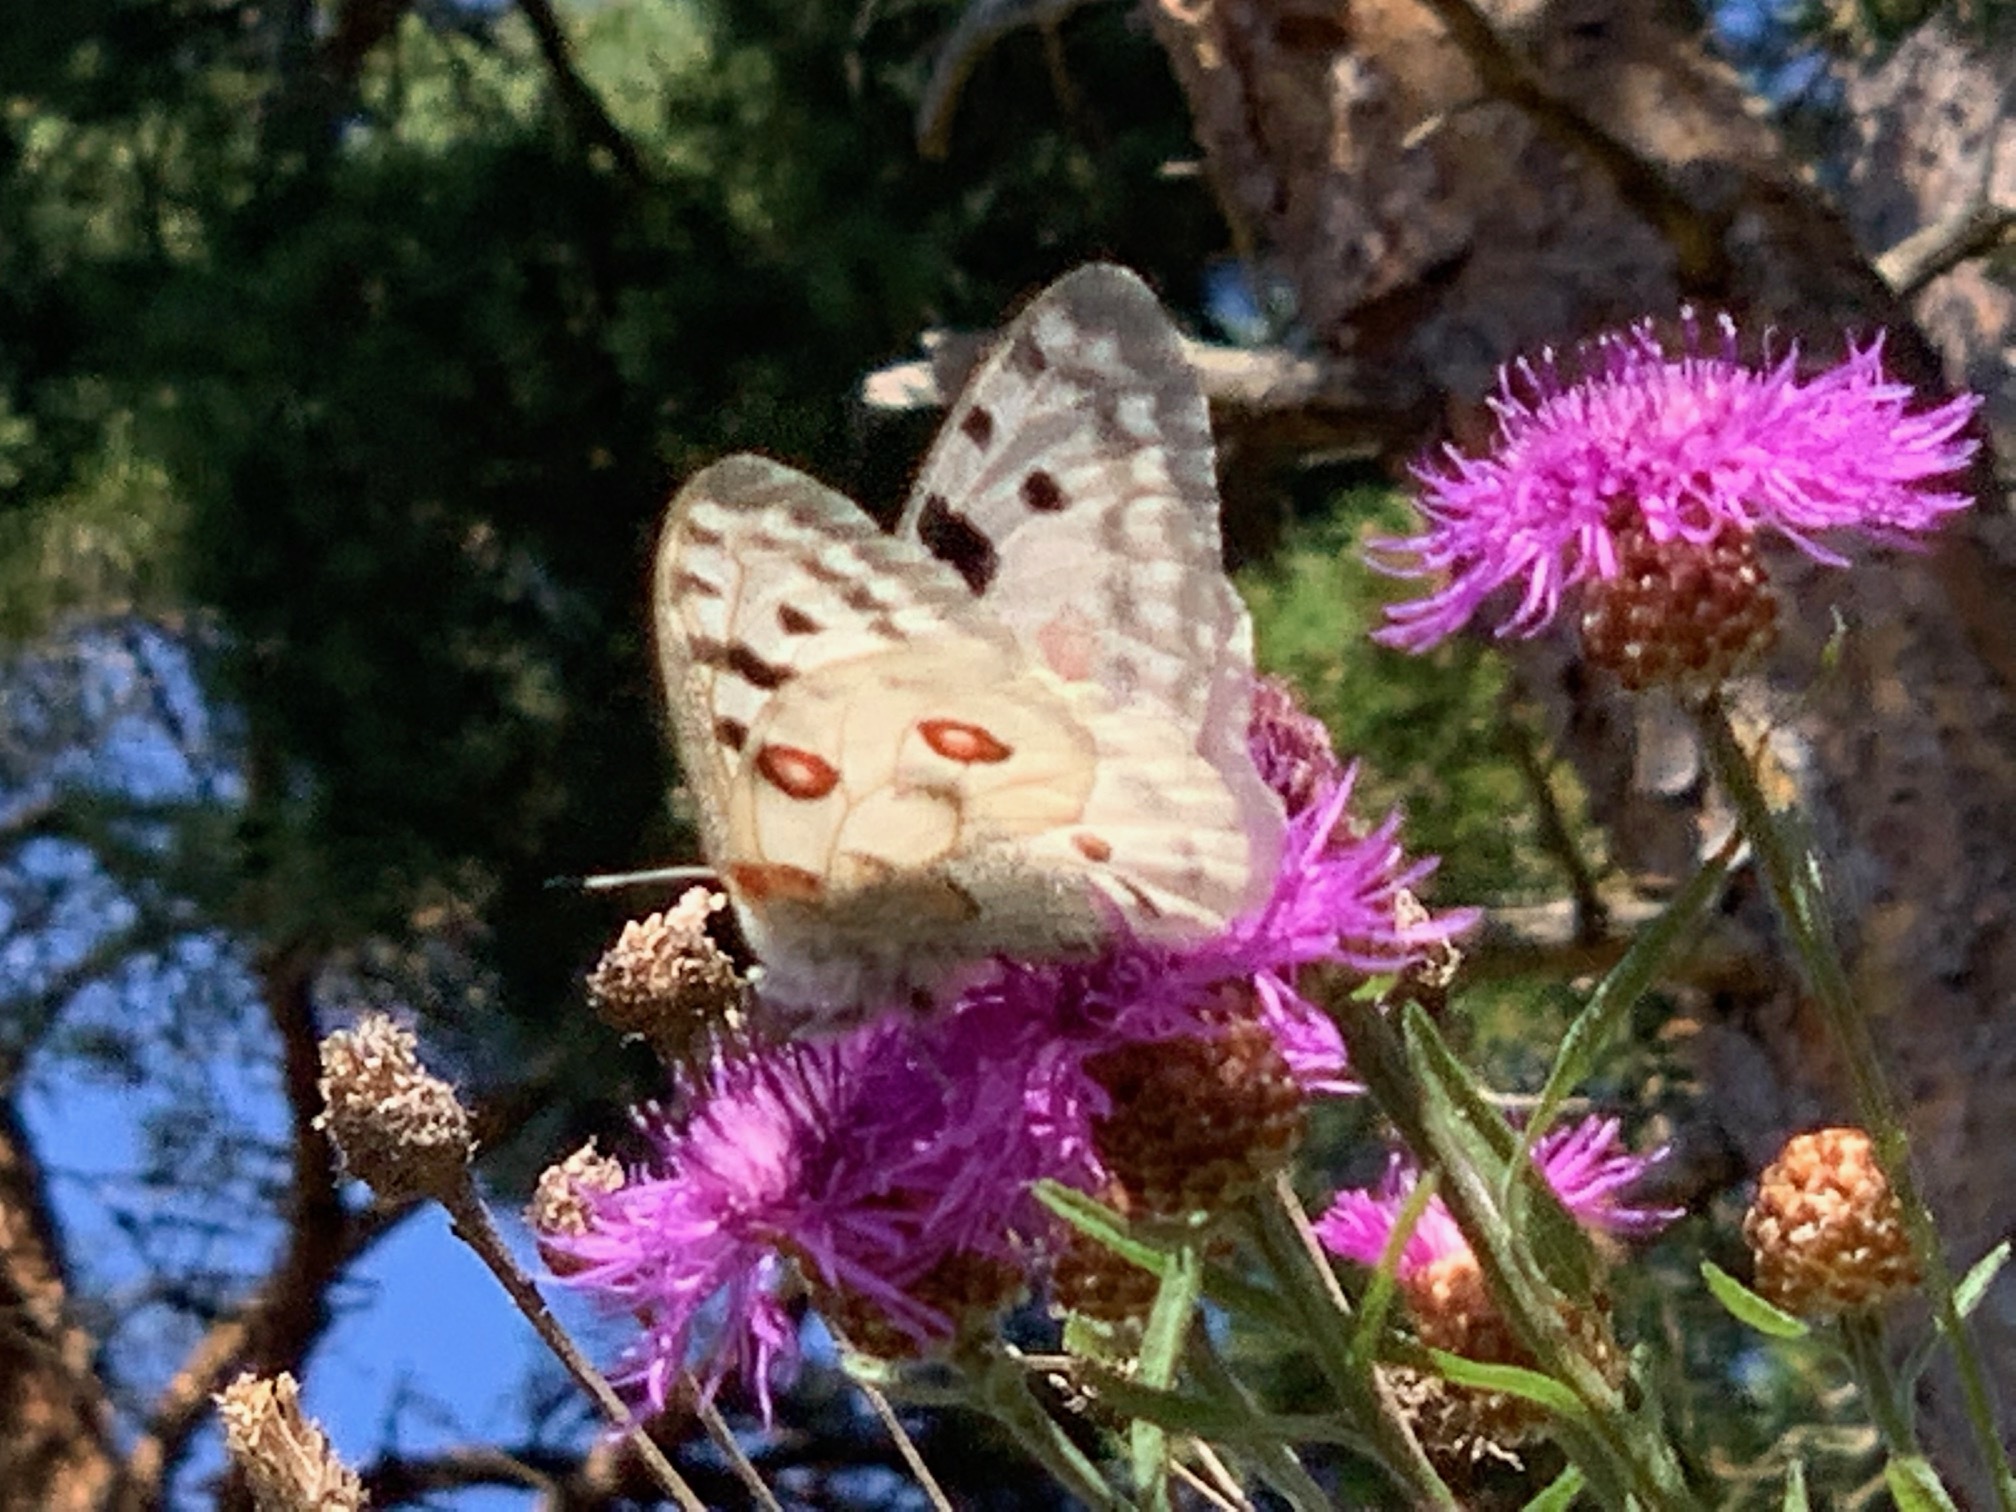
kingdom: Animalia
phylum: Arthropoda
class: Insecta
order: Lepidoptera
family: Papilionidae
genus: Parnassius
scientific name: Parnassius apollo
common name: Apollo
